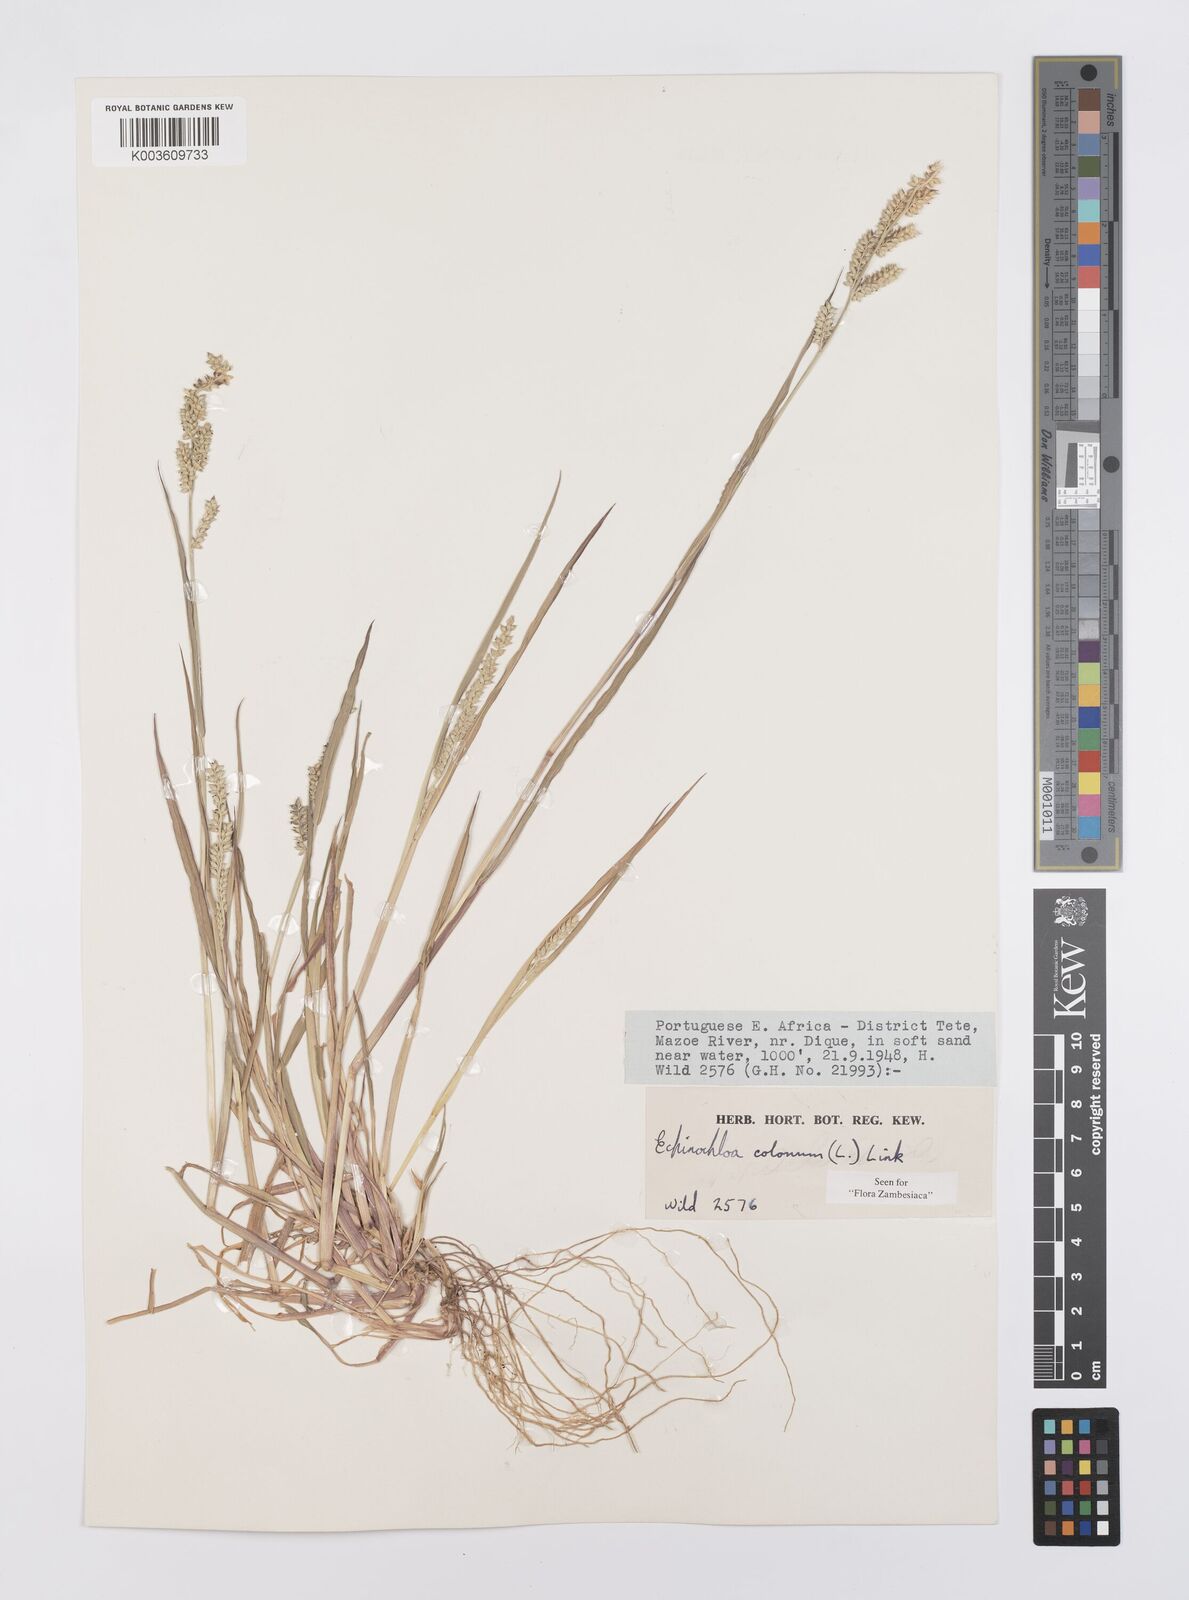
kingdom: Plantae
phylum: Tracheophyta
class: Liliopsida
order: Poales
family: Poaceae
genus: Echinochloa
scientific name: Echinochloa colonum
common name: Jungle rice
